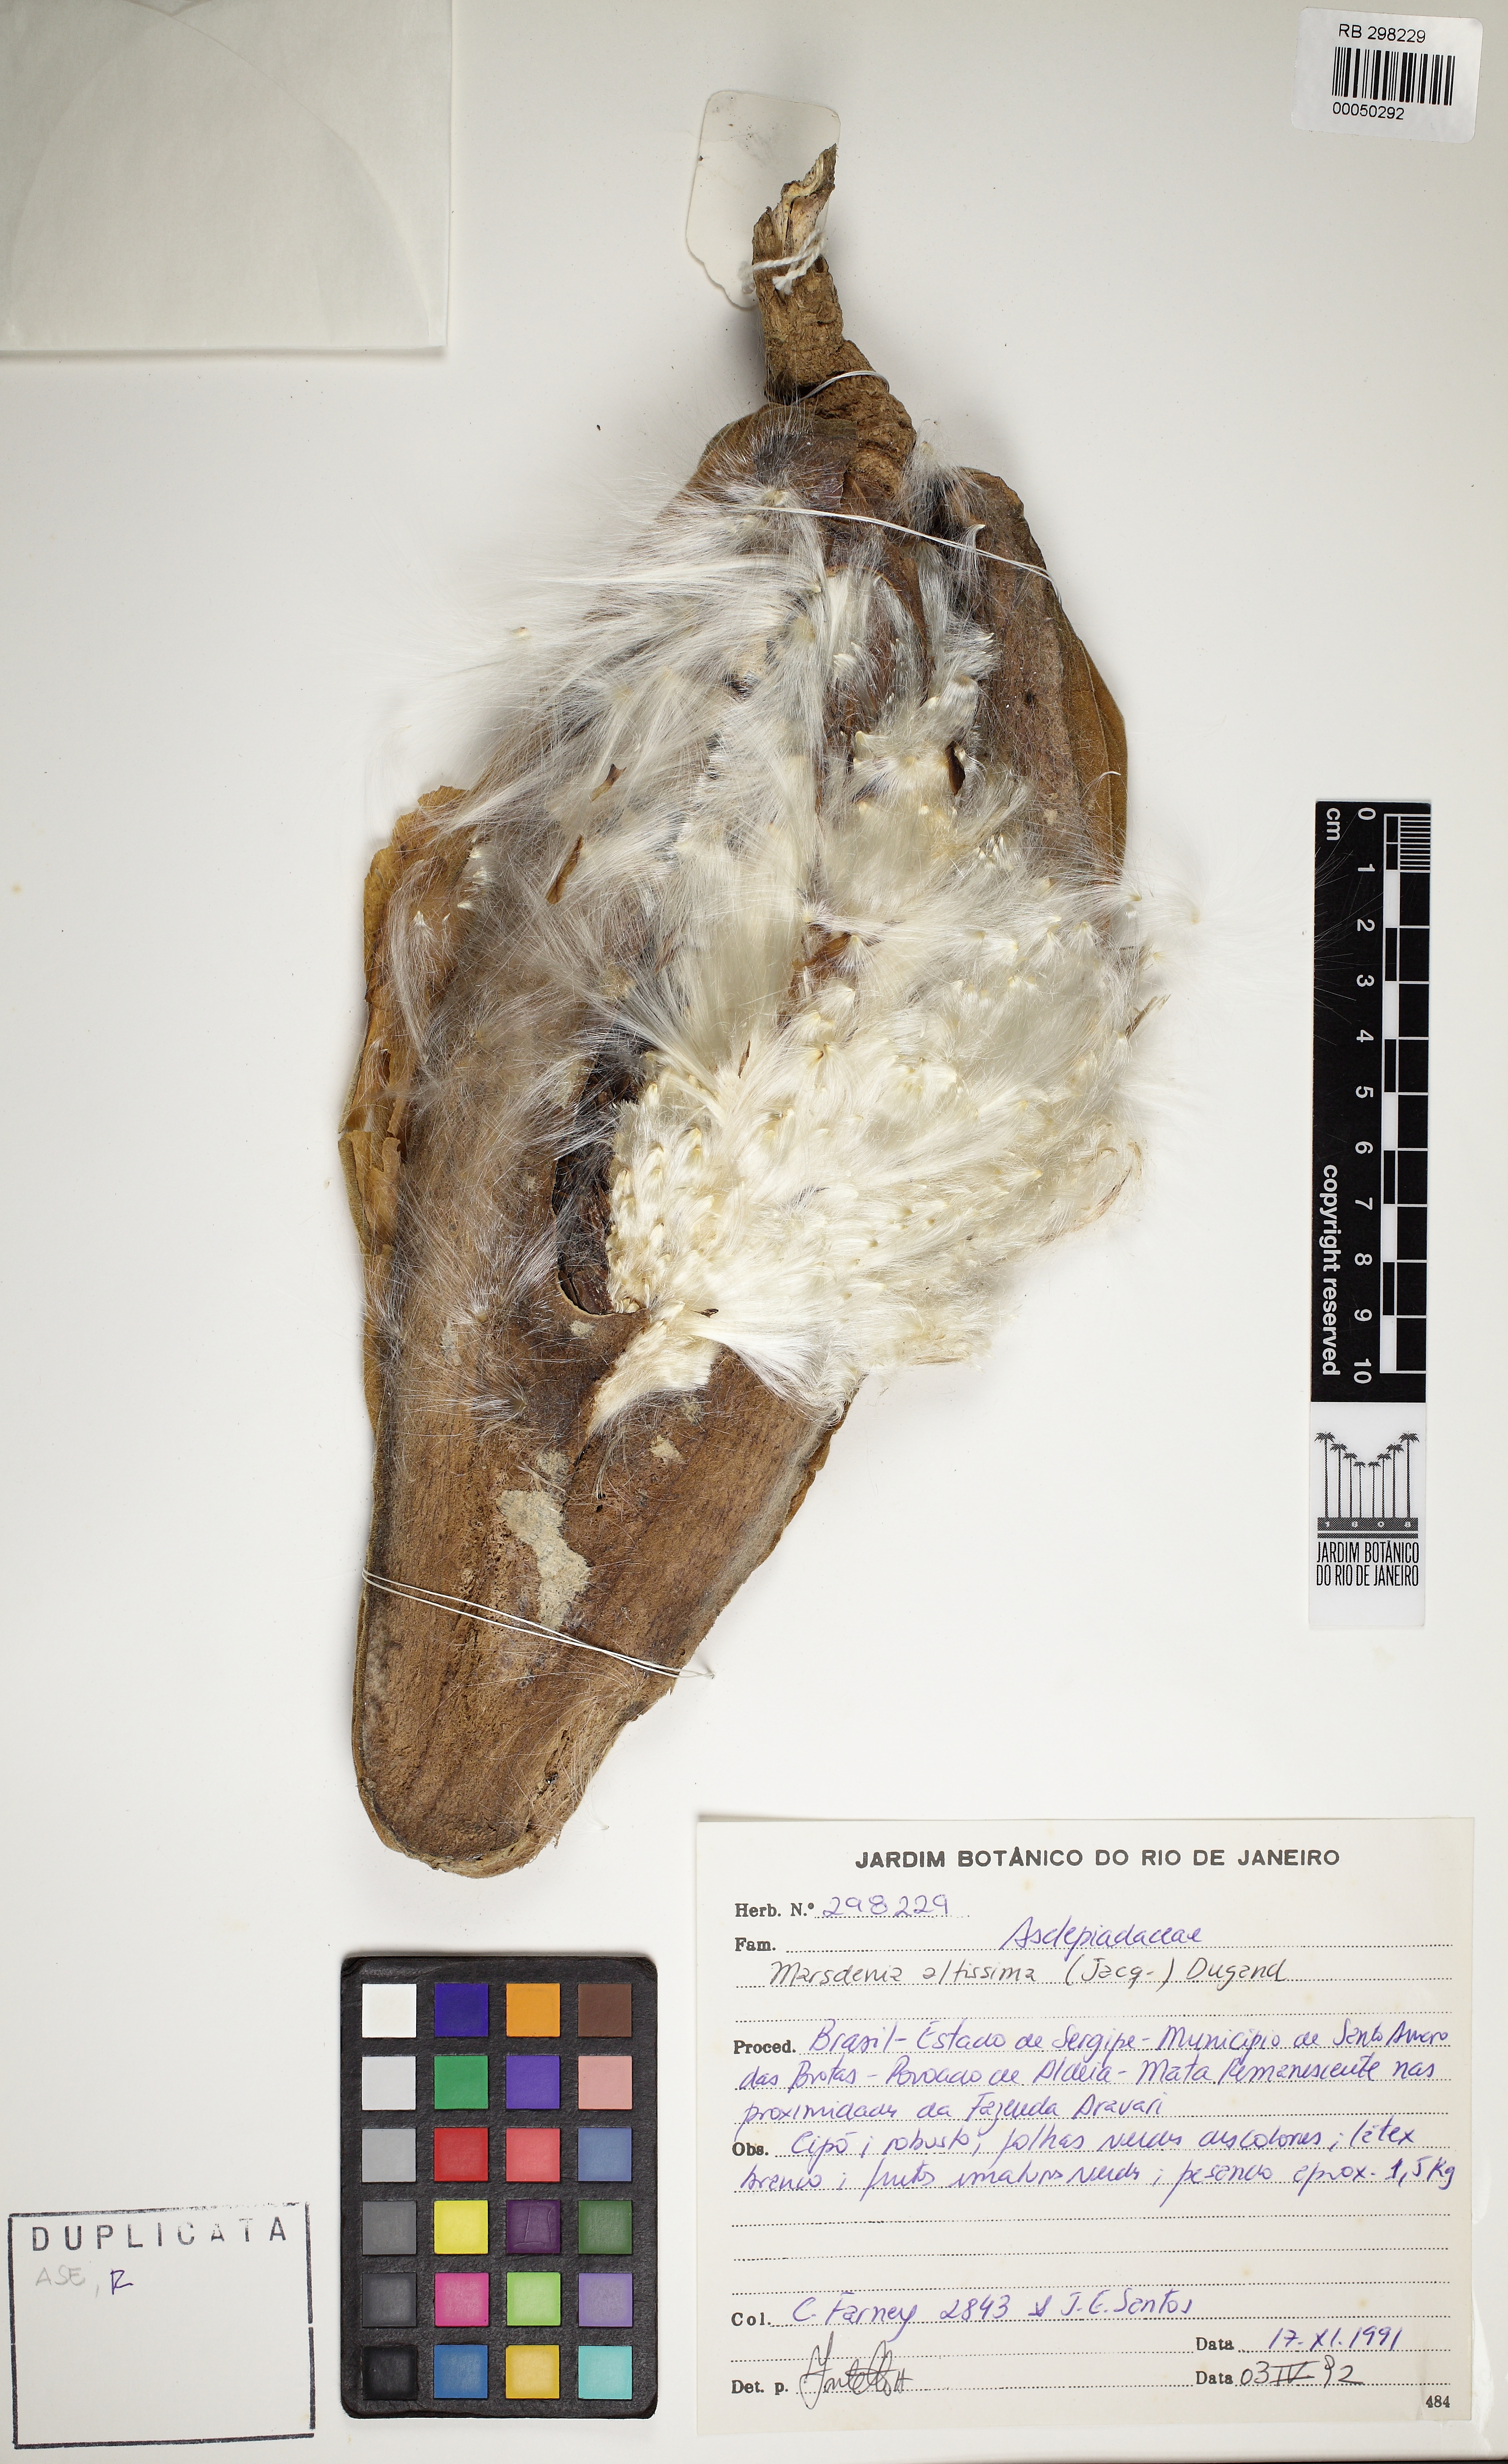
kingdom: Plantae
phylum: Tracheophyta
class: Magnoliopsida
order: Gentianales
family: Apocynaceae
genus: Ruehssia
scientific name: Ruehssia altissima
